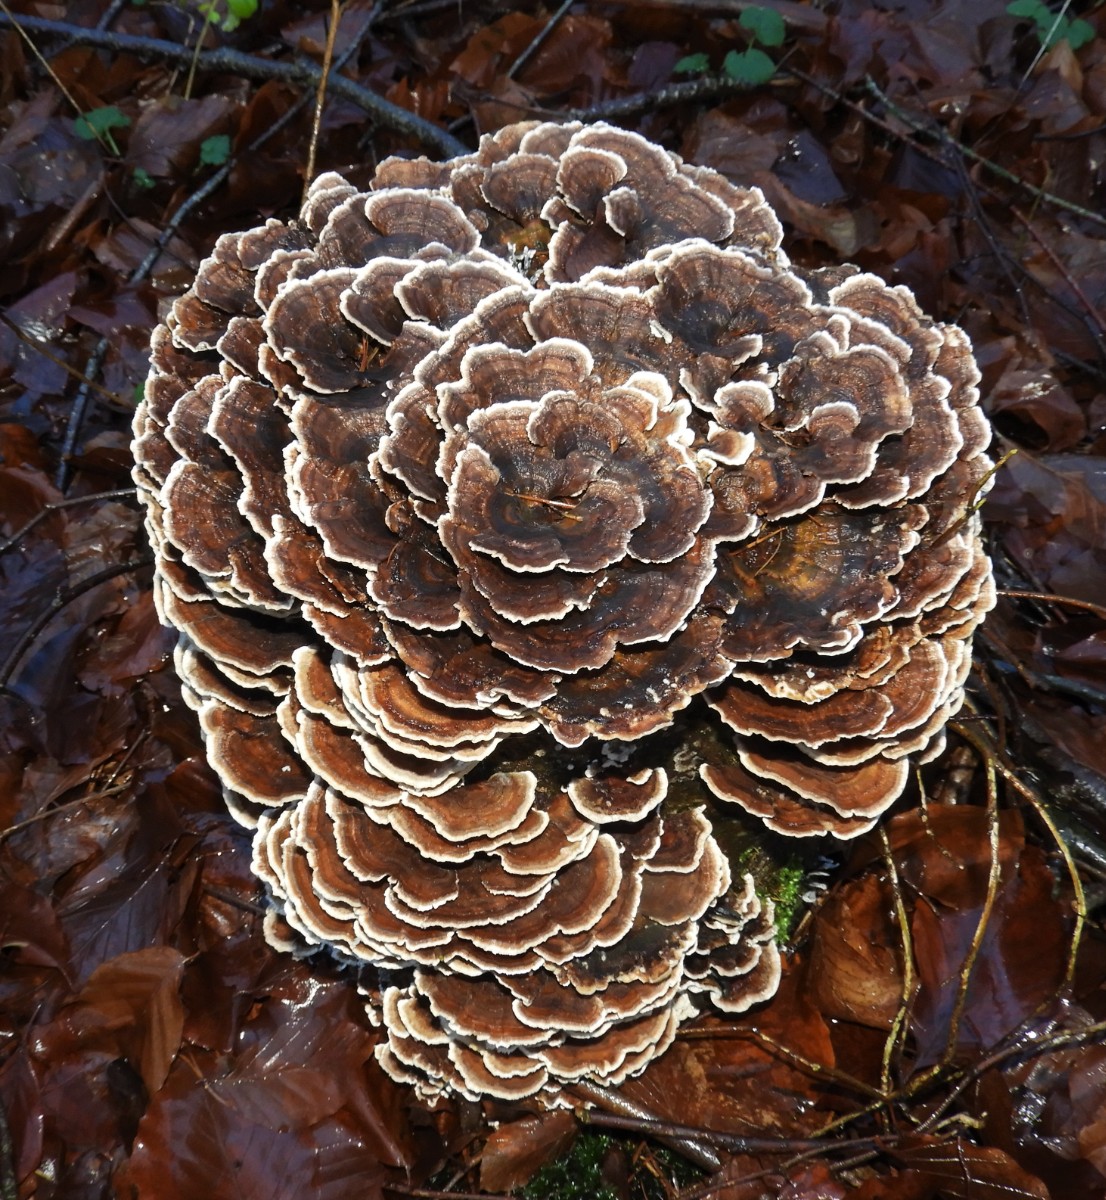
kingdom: Fungi
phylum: Basidiomycota
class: Agaricomycetes
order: Polyporales
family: Polyporaceae
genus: Trametes
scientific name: Trametes versicolor
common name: broget læderporesvamp
